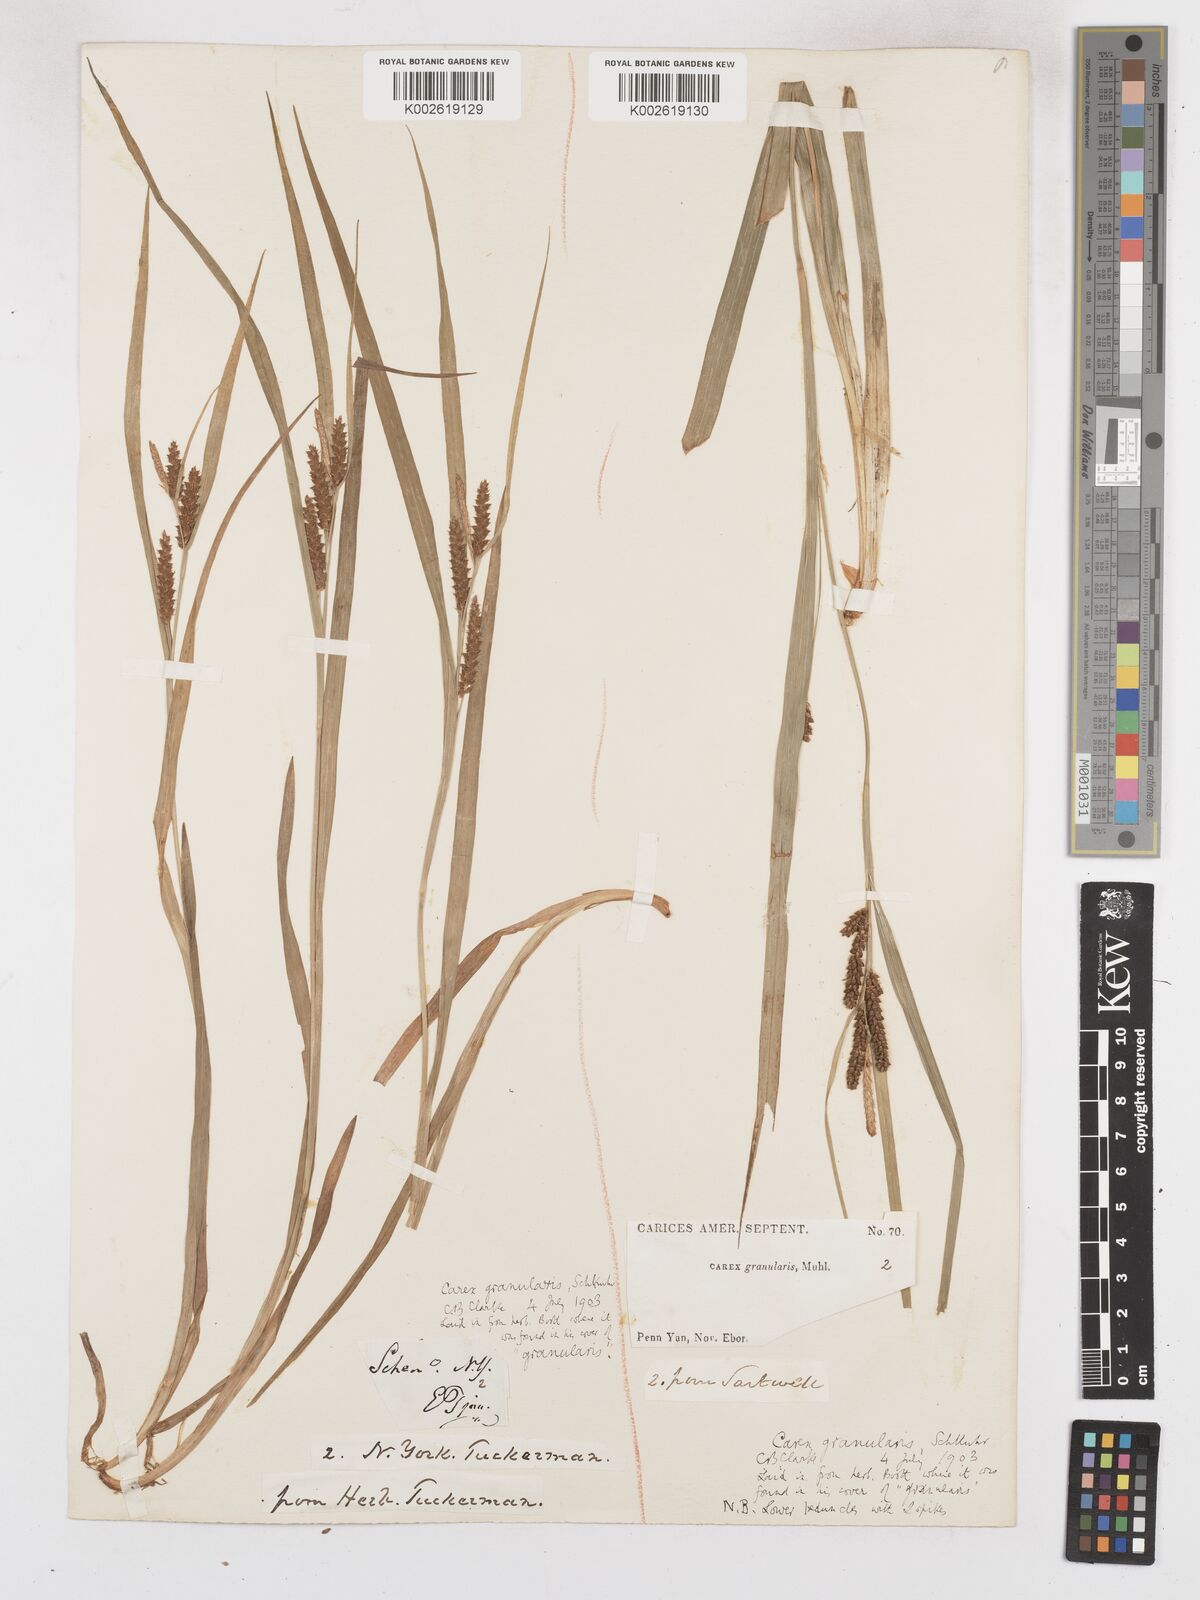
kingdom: Plantae
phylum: Tracheophyta
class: Liliopsida
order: Poales
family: Cyperaceae
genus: Carex
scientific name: Carex granularis
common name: Granular sedge
